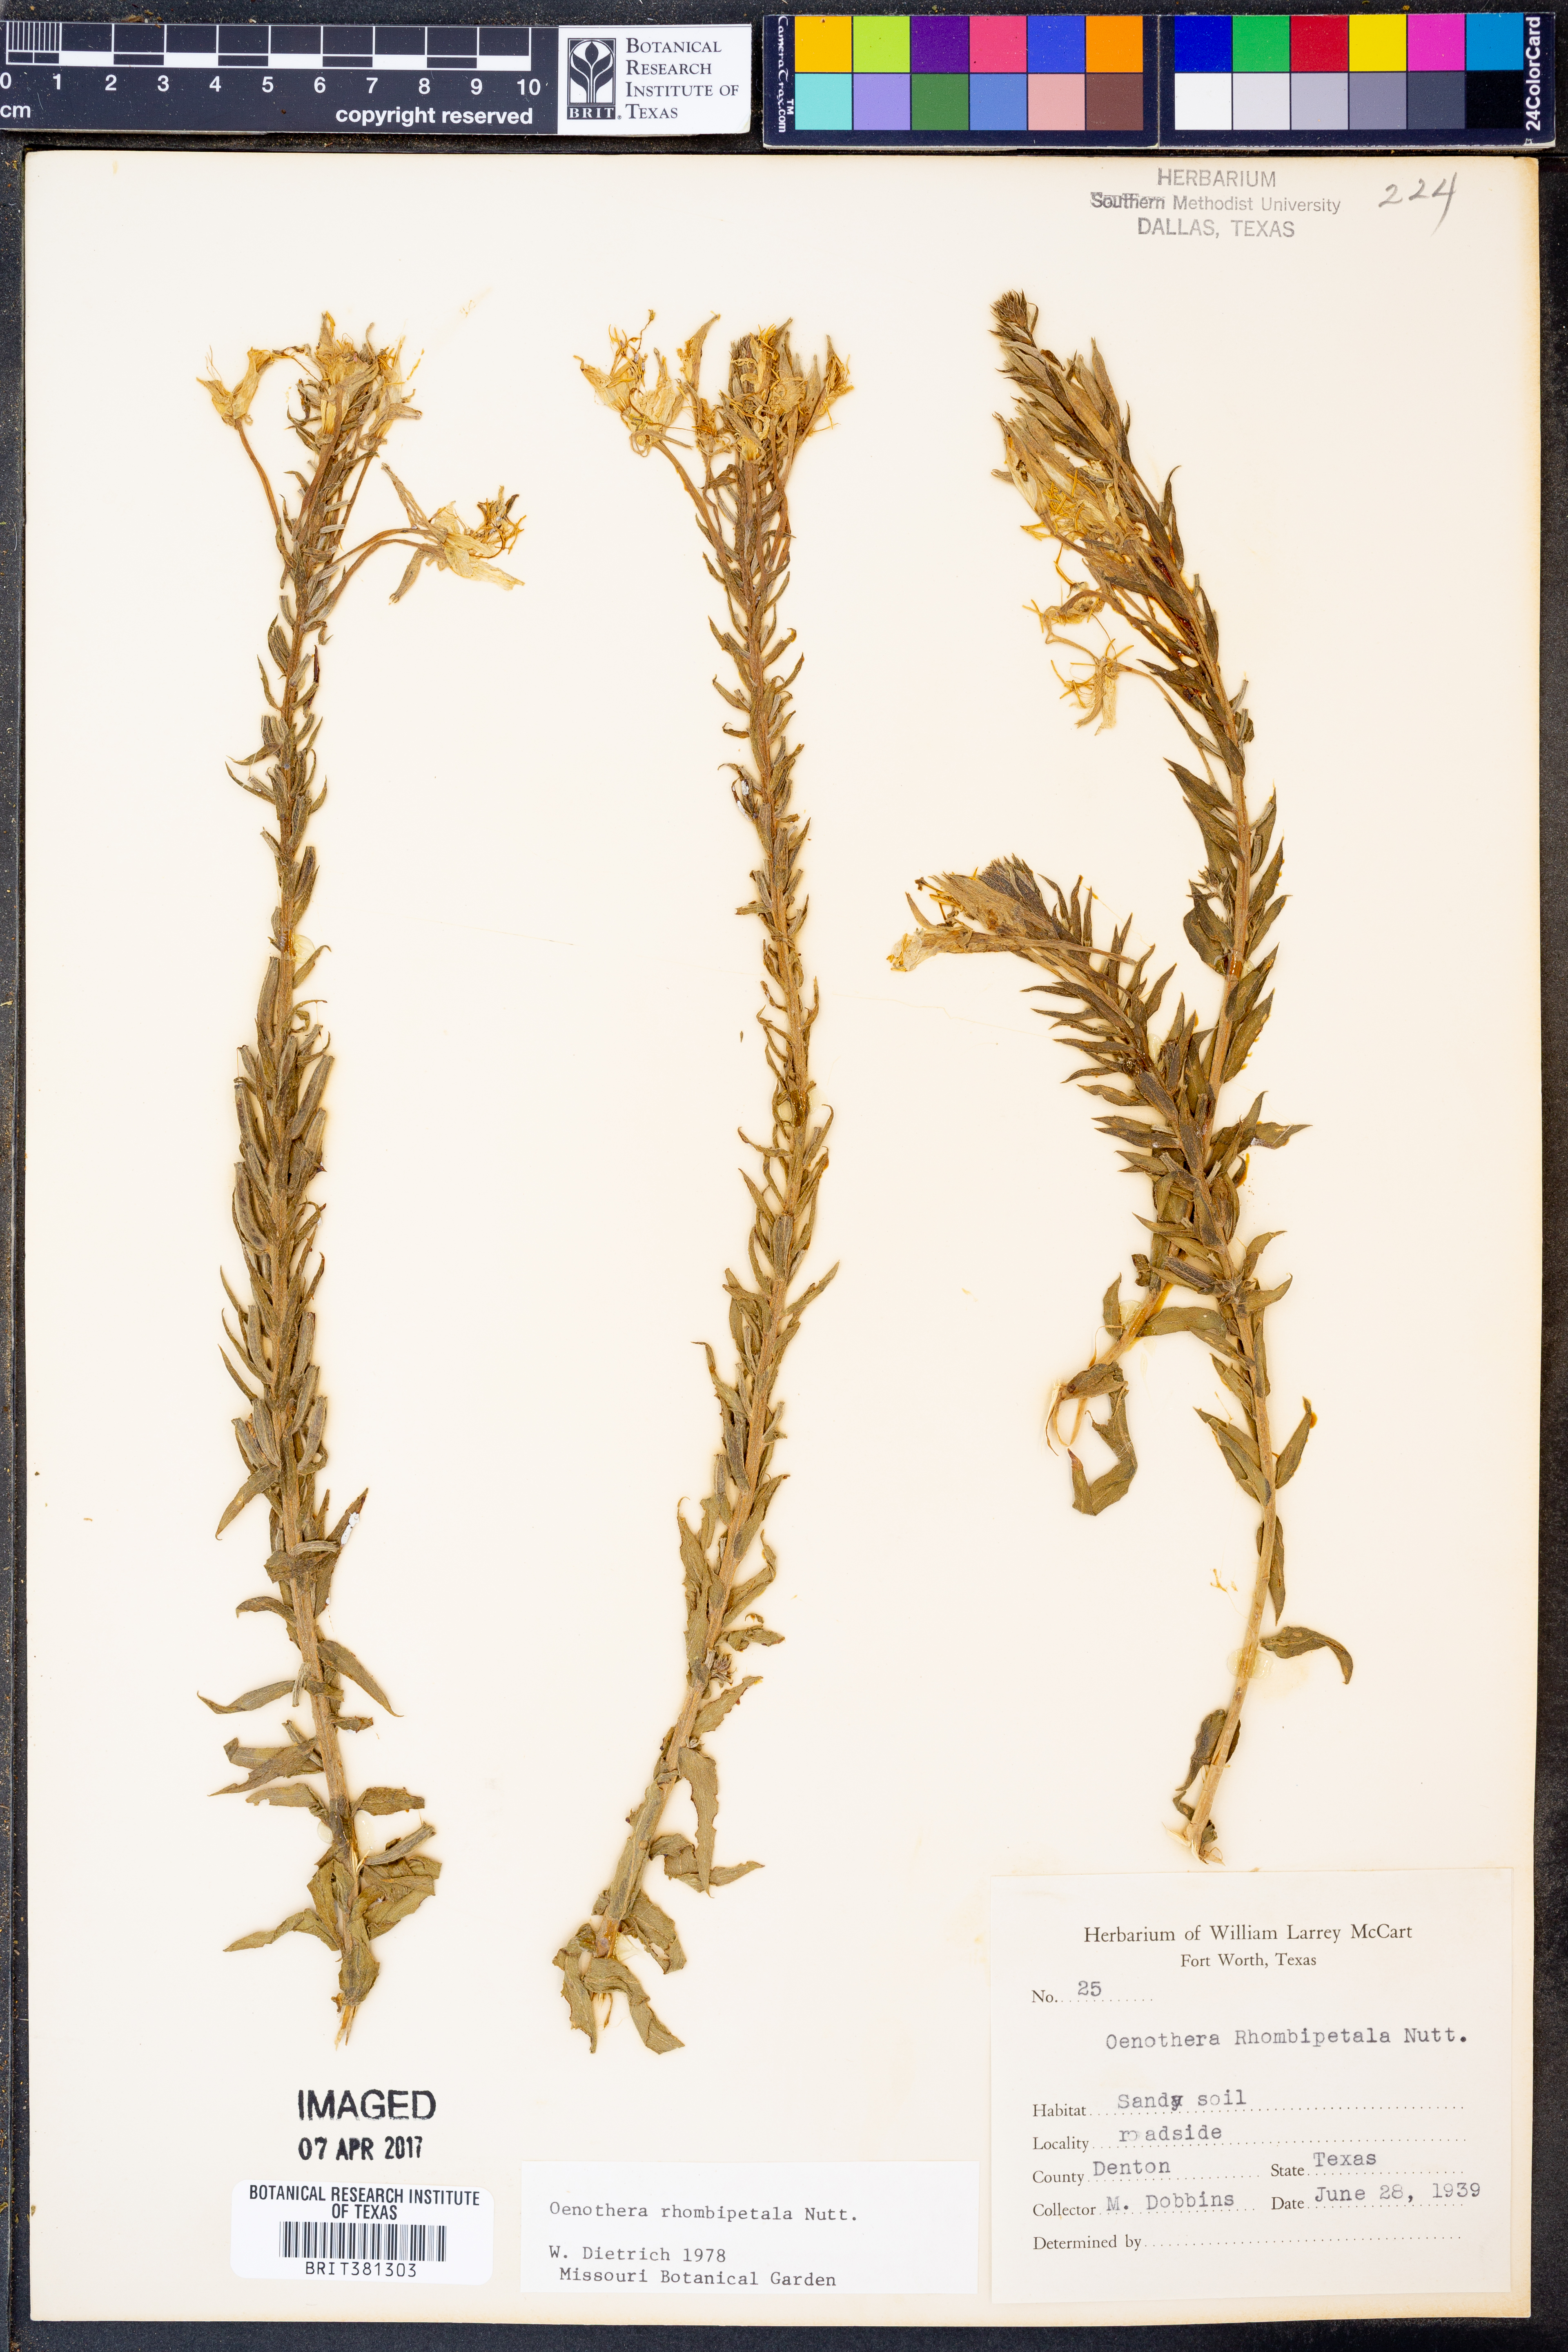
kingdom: Plantae
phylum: Tracheophyta
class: Magnoliopsida
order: Myrtales
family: Onagraceae
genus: Oenothera
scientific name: Oenothera rhombipetala
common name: Four-points evening-primrose
